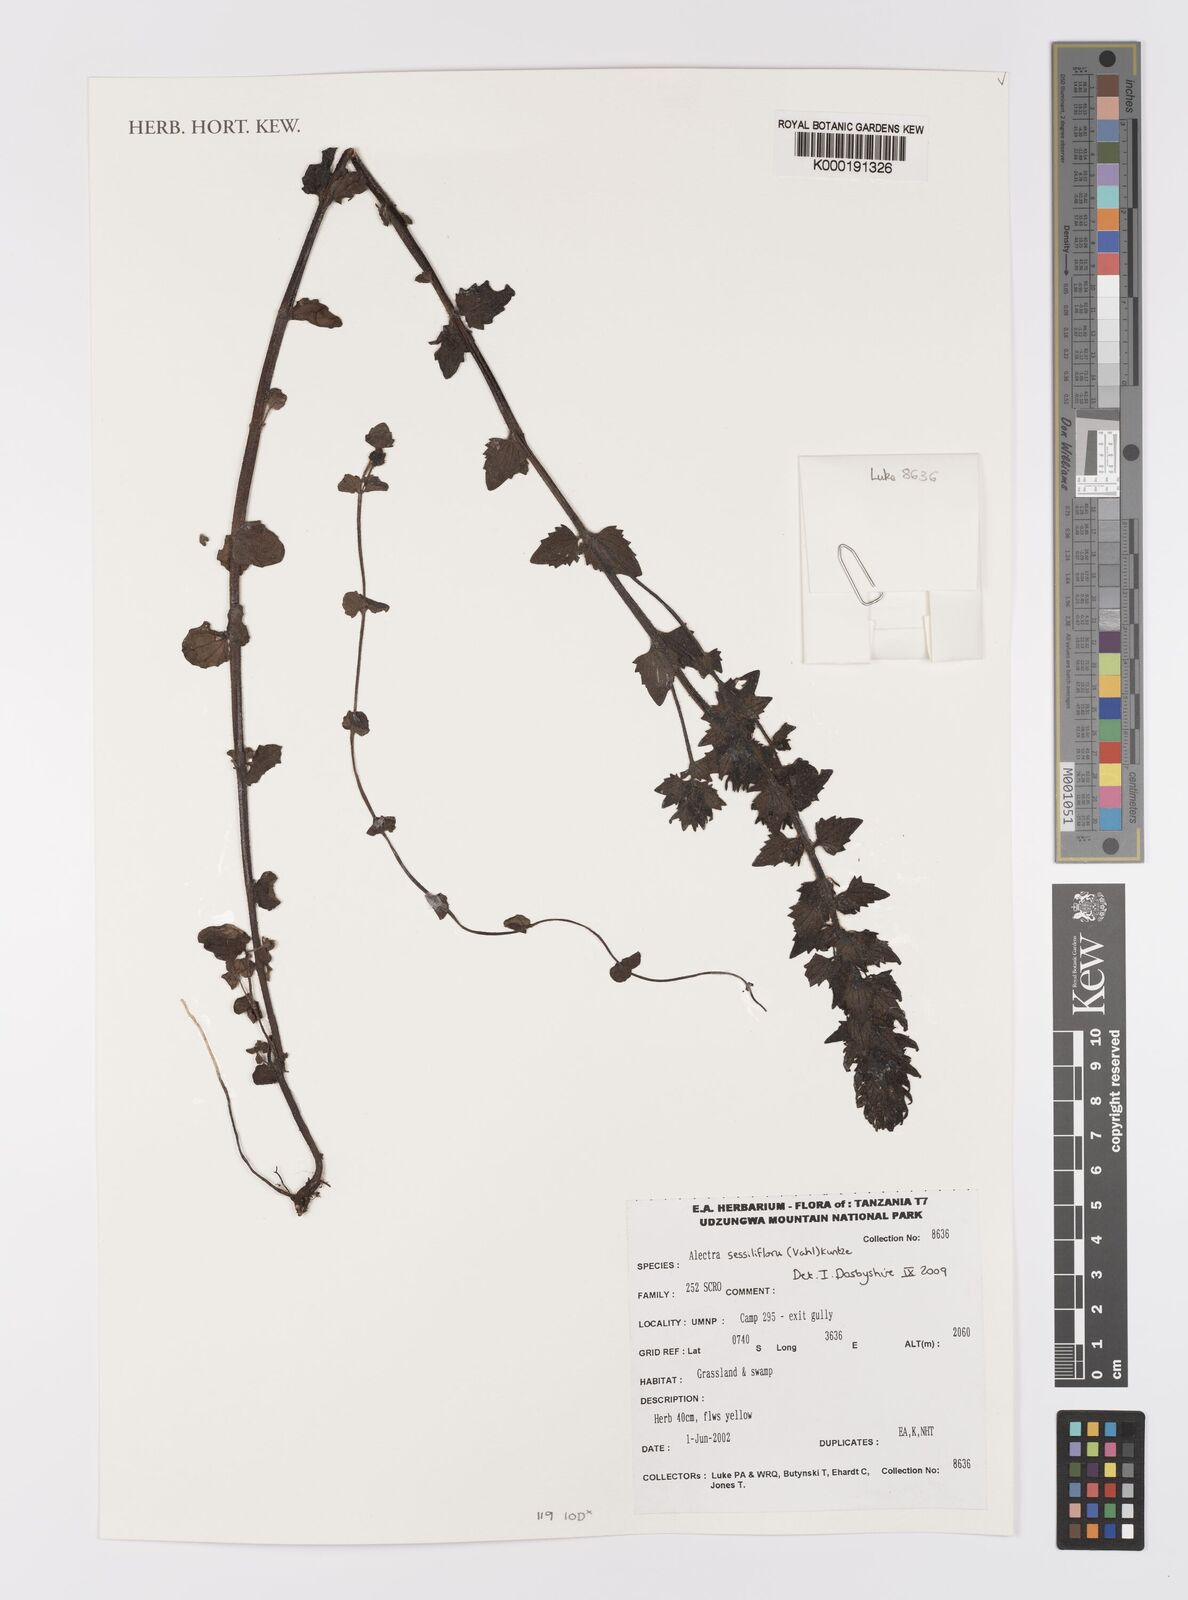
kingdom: Plantae
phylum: Tracheophyta
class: Magnoliopsida
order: Lamiales
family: Orobanchaceae
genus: Alectra
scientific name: Alectra sessiliflora
